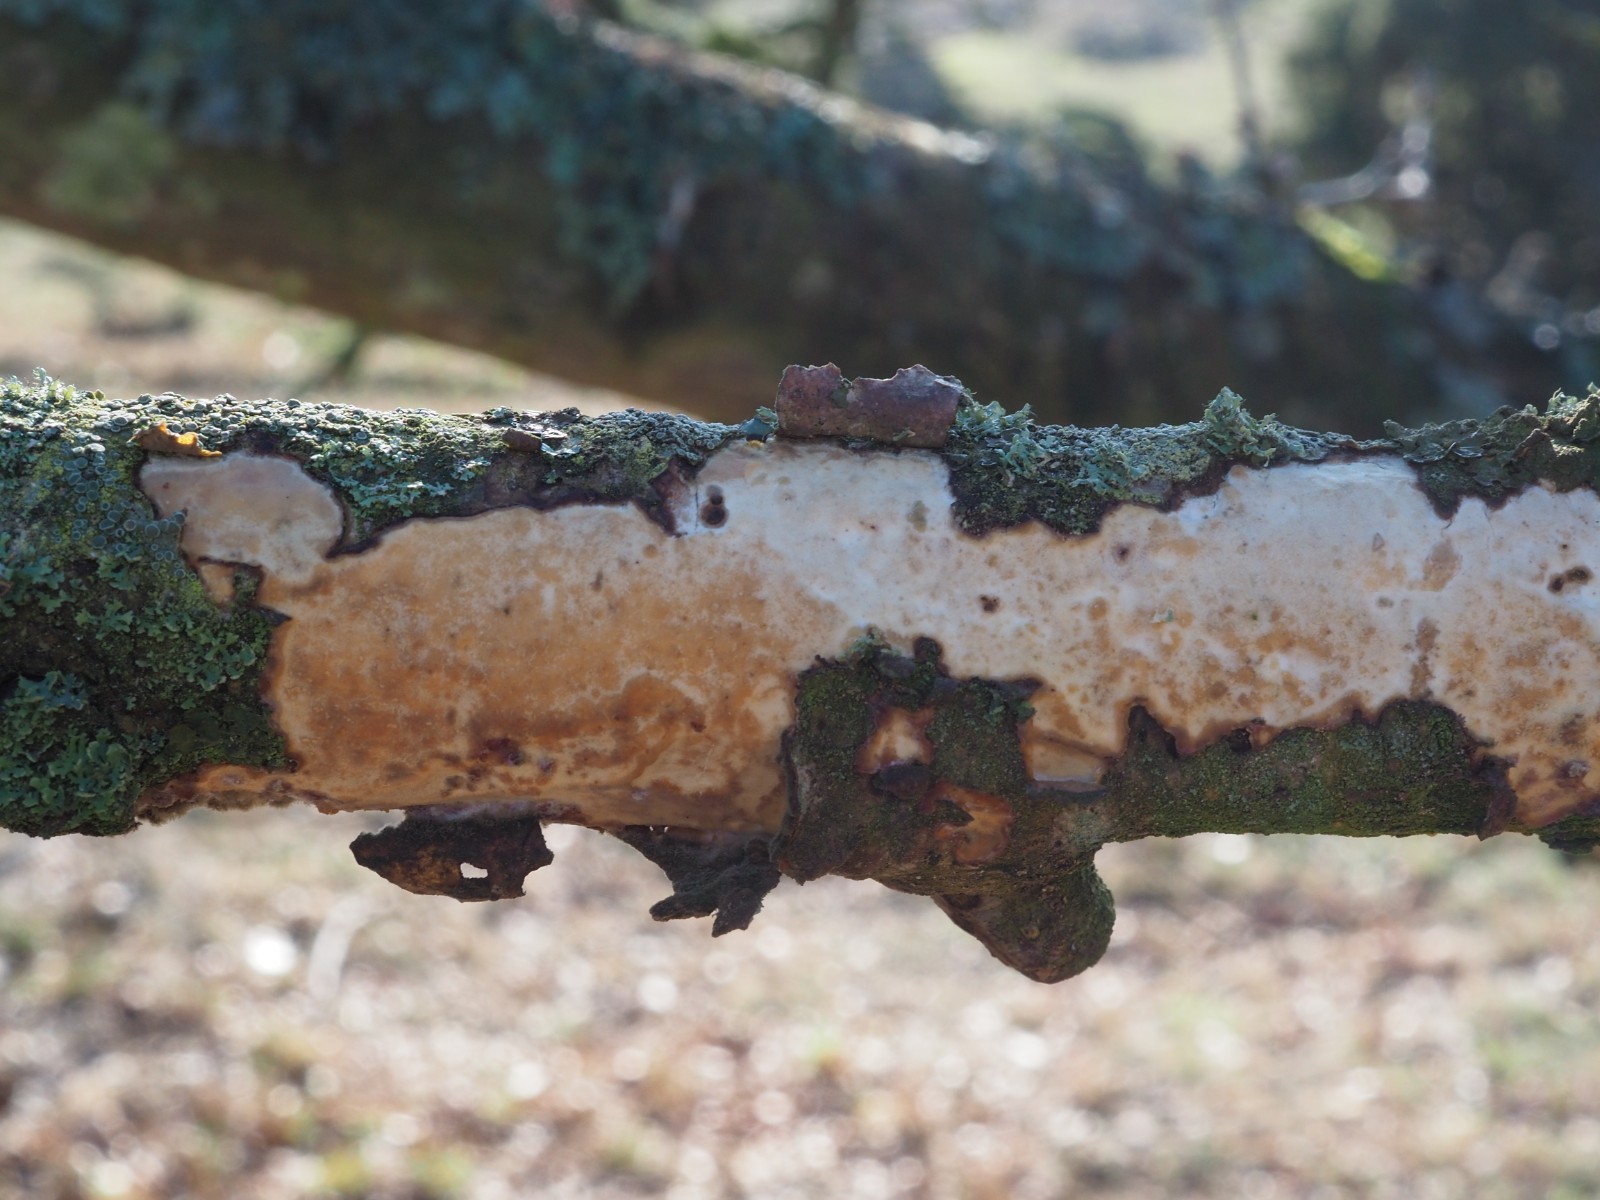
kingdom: Fungi
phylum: Basidiomycota
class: Agaricomycetes
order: Corticiales
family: Vuilleminiaceae
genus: Vuilleminia
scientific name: Vuilleminia comedens
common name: almindelig barksprænger
